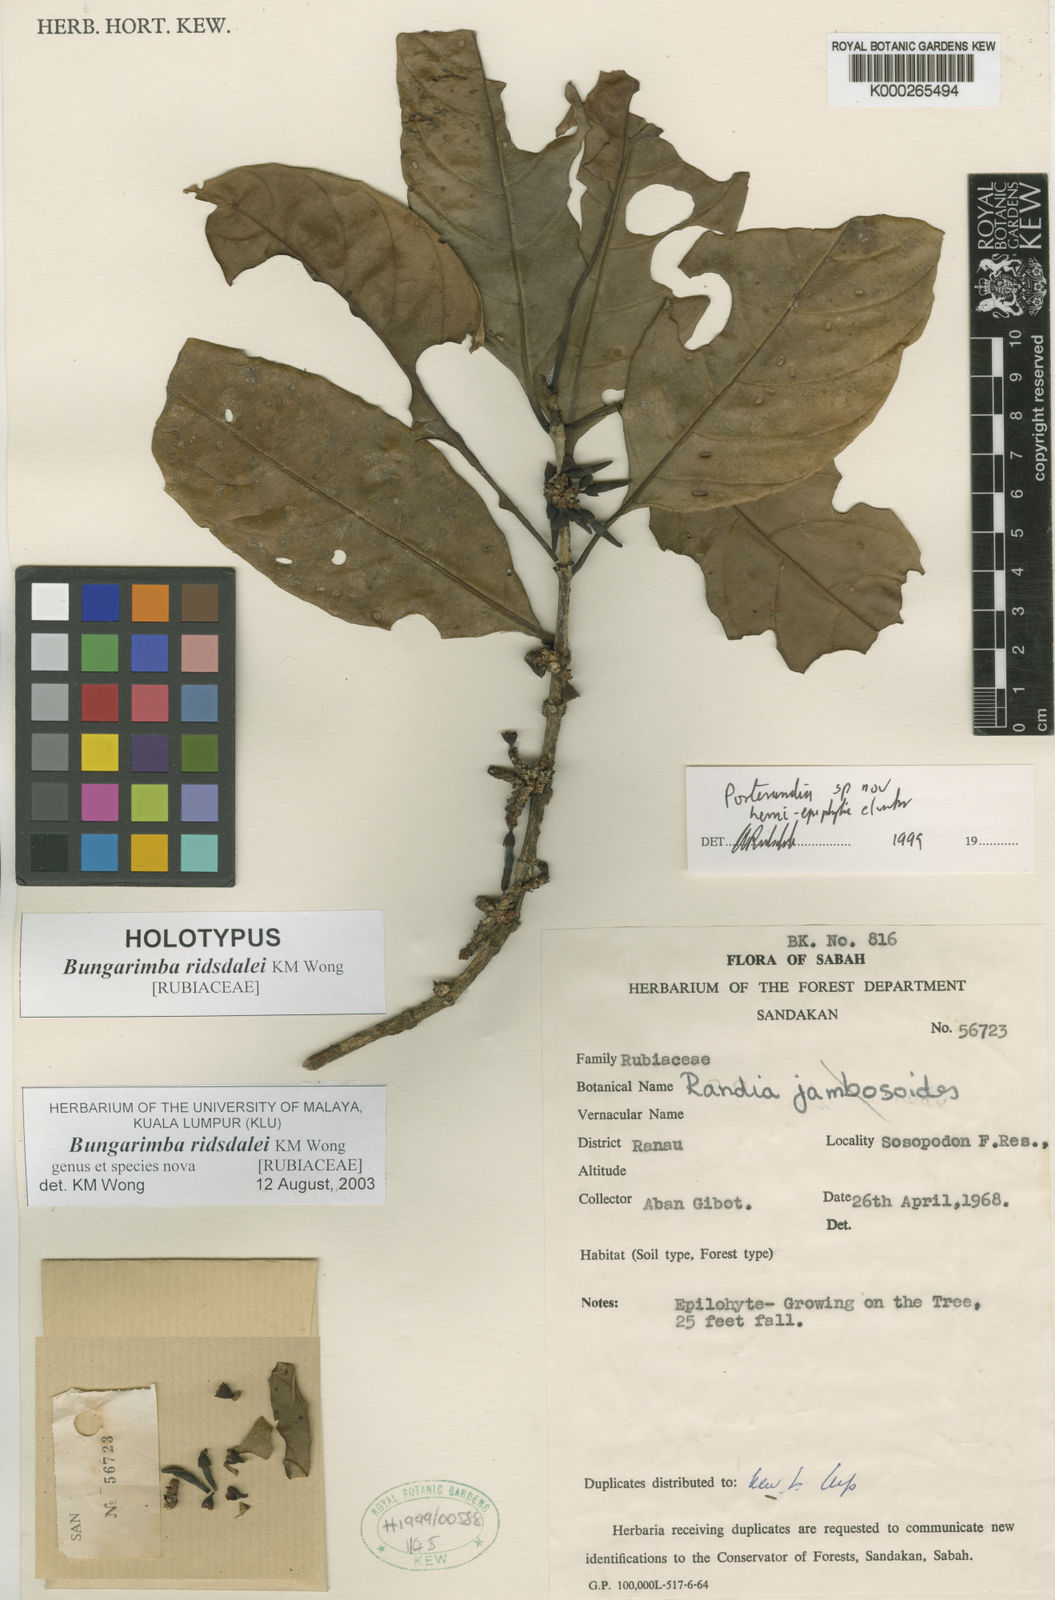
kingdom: Plantae
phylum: Tracheophyta
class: Magnoliopsida
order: Gentianales
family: Rubiaceae
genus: Bungarimba
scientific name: Bungarimba ridsdalei
